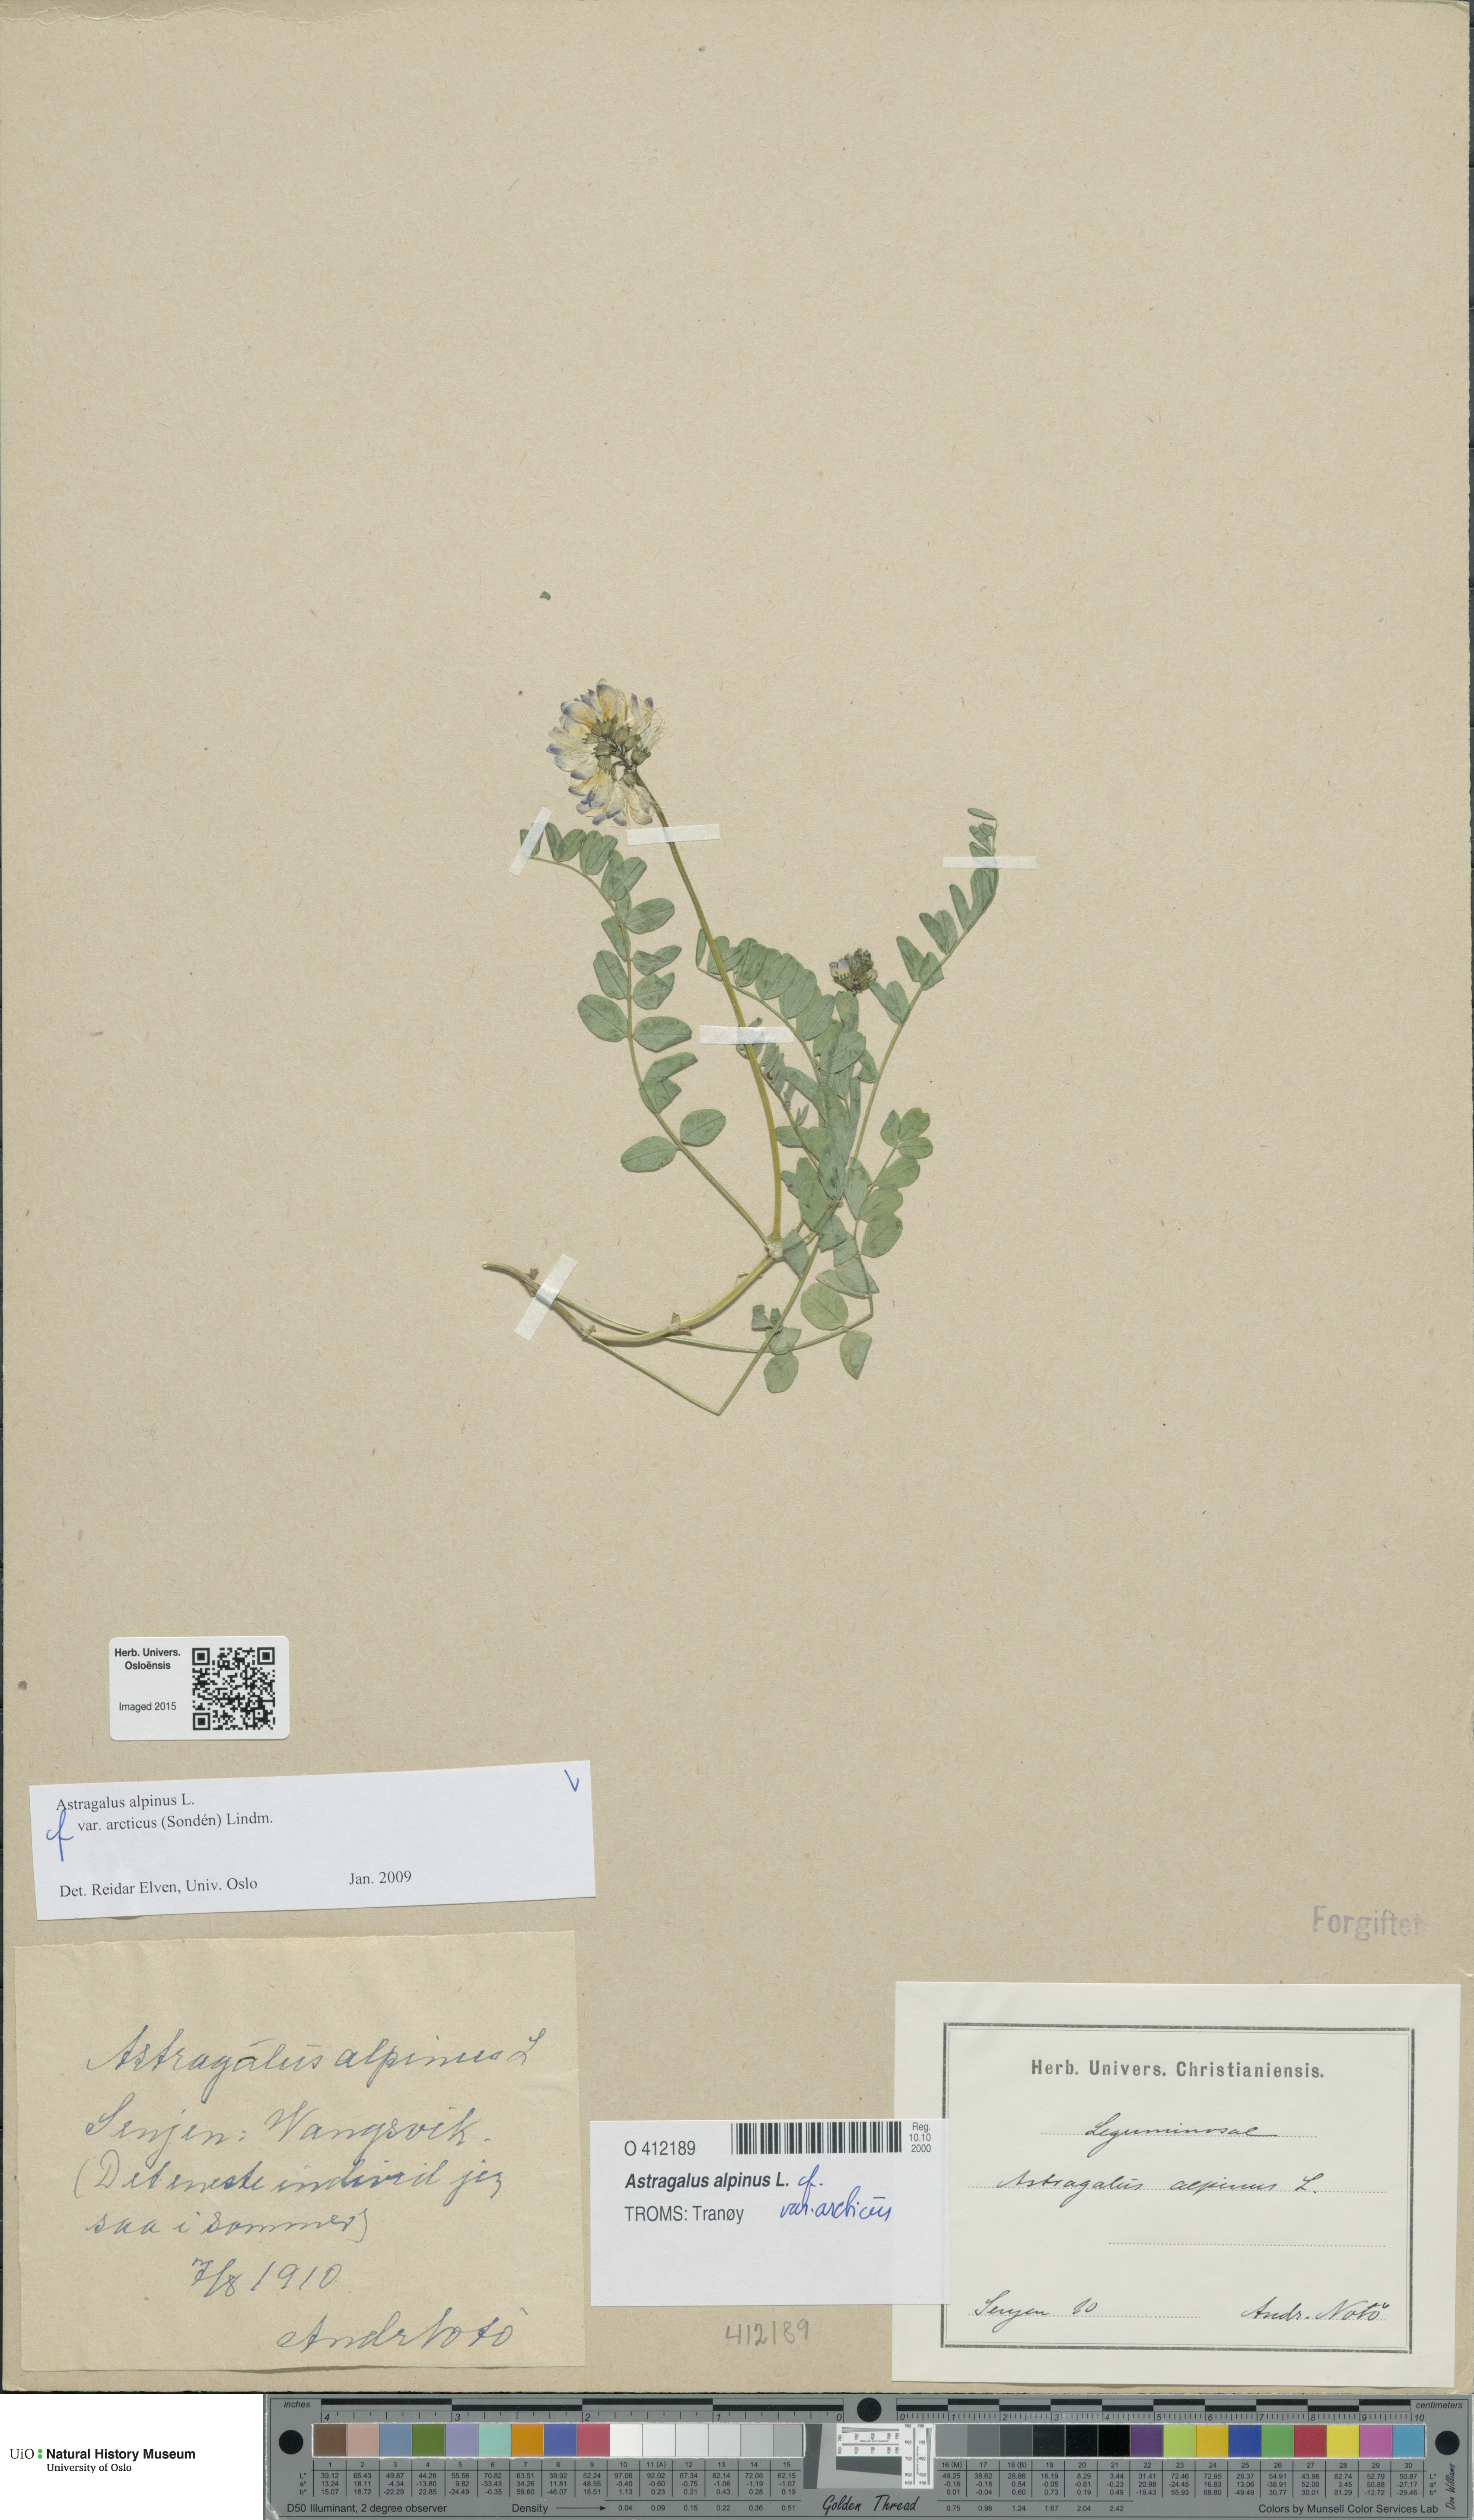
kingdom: Plantae
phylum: Tracheophyta
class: Magnoliopsida
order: Fabales
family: Fabaceae
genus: Astragalus
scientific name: Astragalus norvegicus
